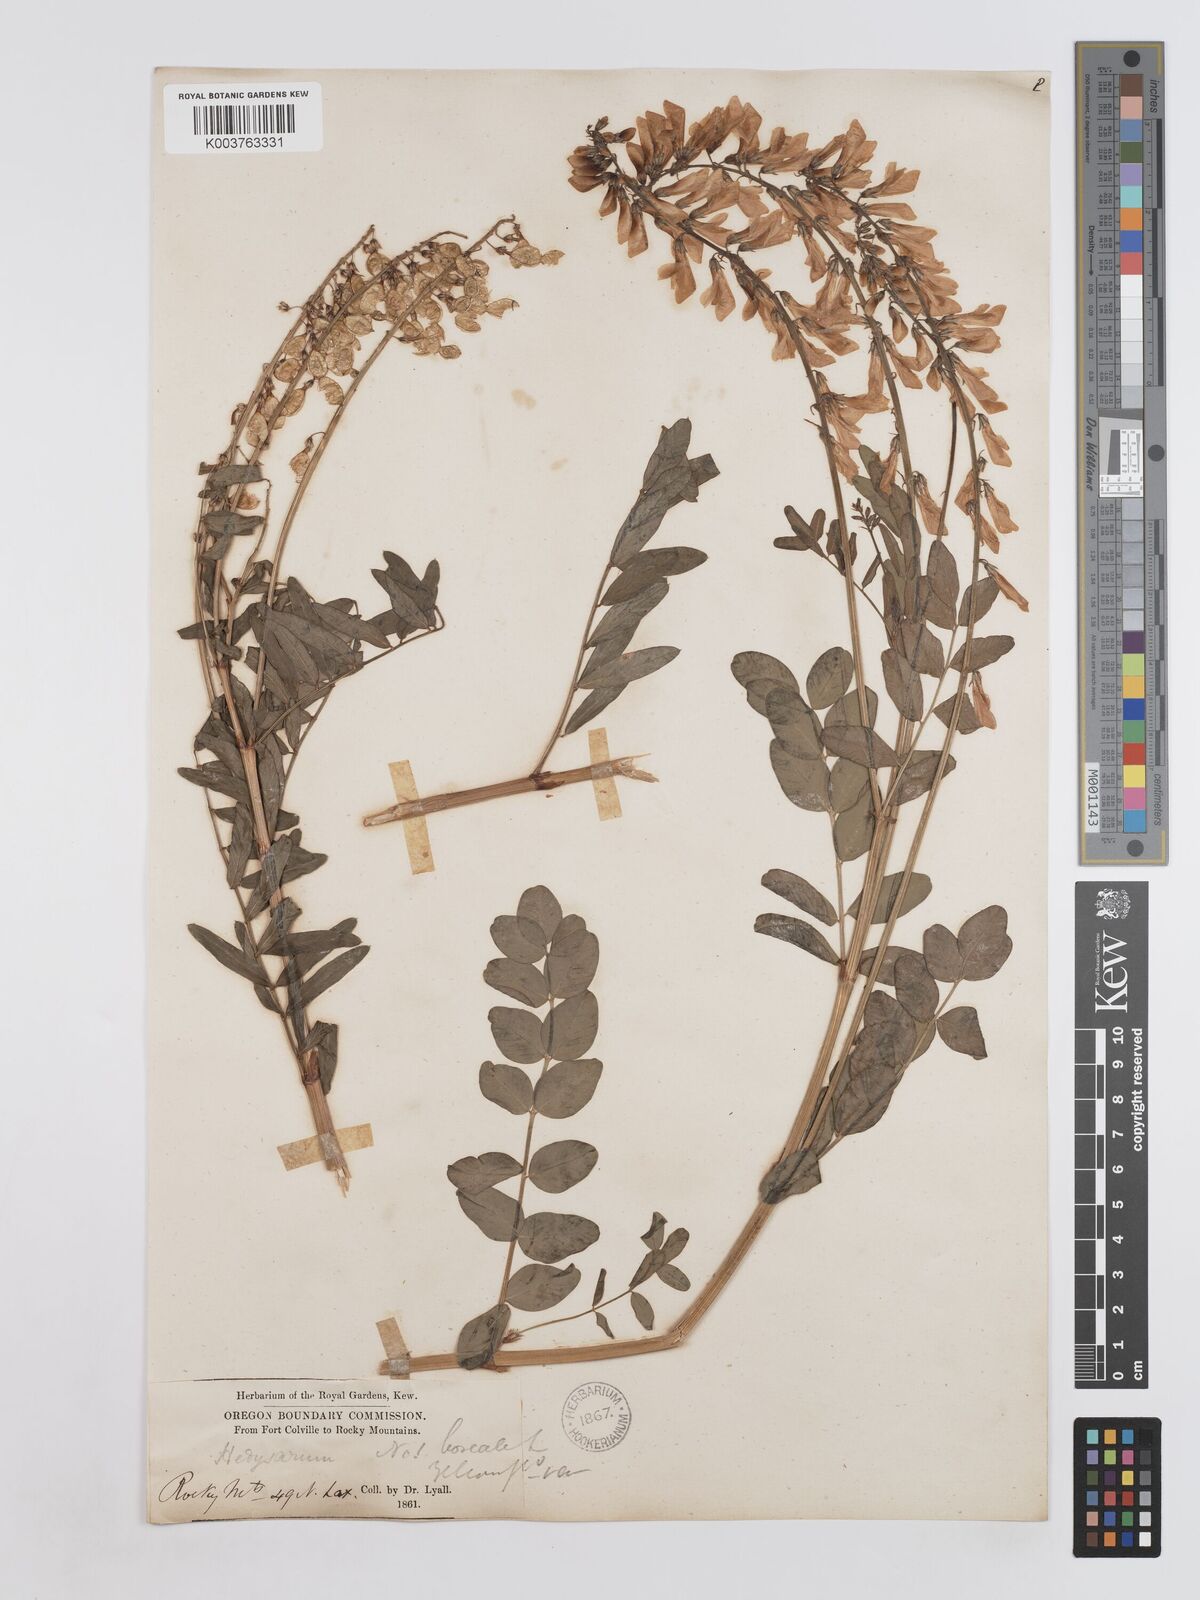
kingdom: Plantae
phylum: Tracheophyta
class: Magnoliopsida
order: Fabales
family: Fabaceae
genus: Hedysarum
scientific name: Hedysarum sulphurescens
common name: Sulphur hedysarum
